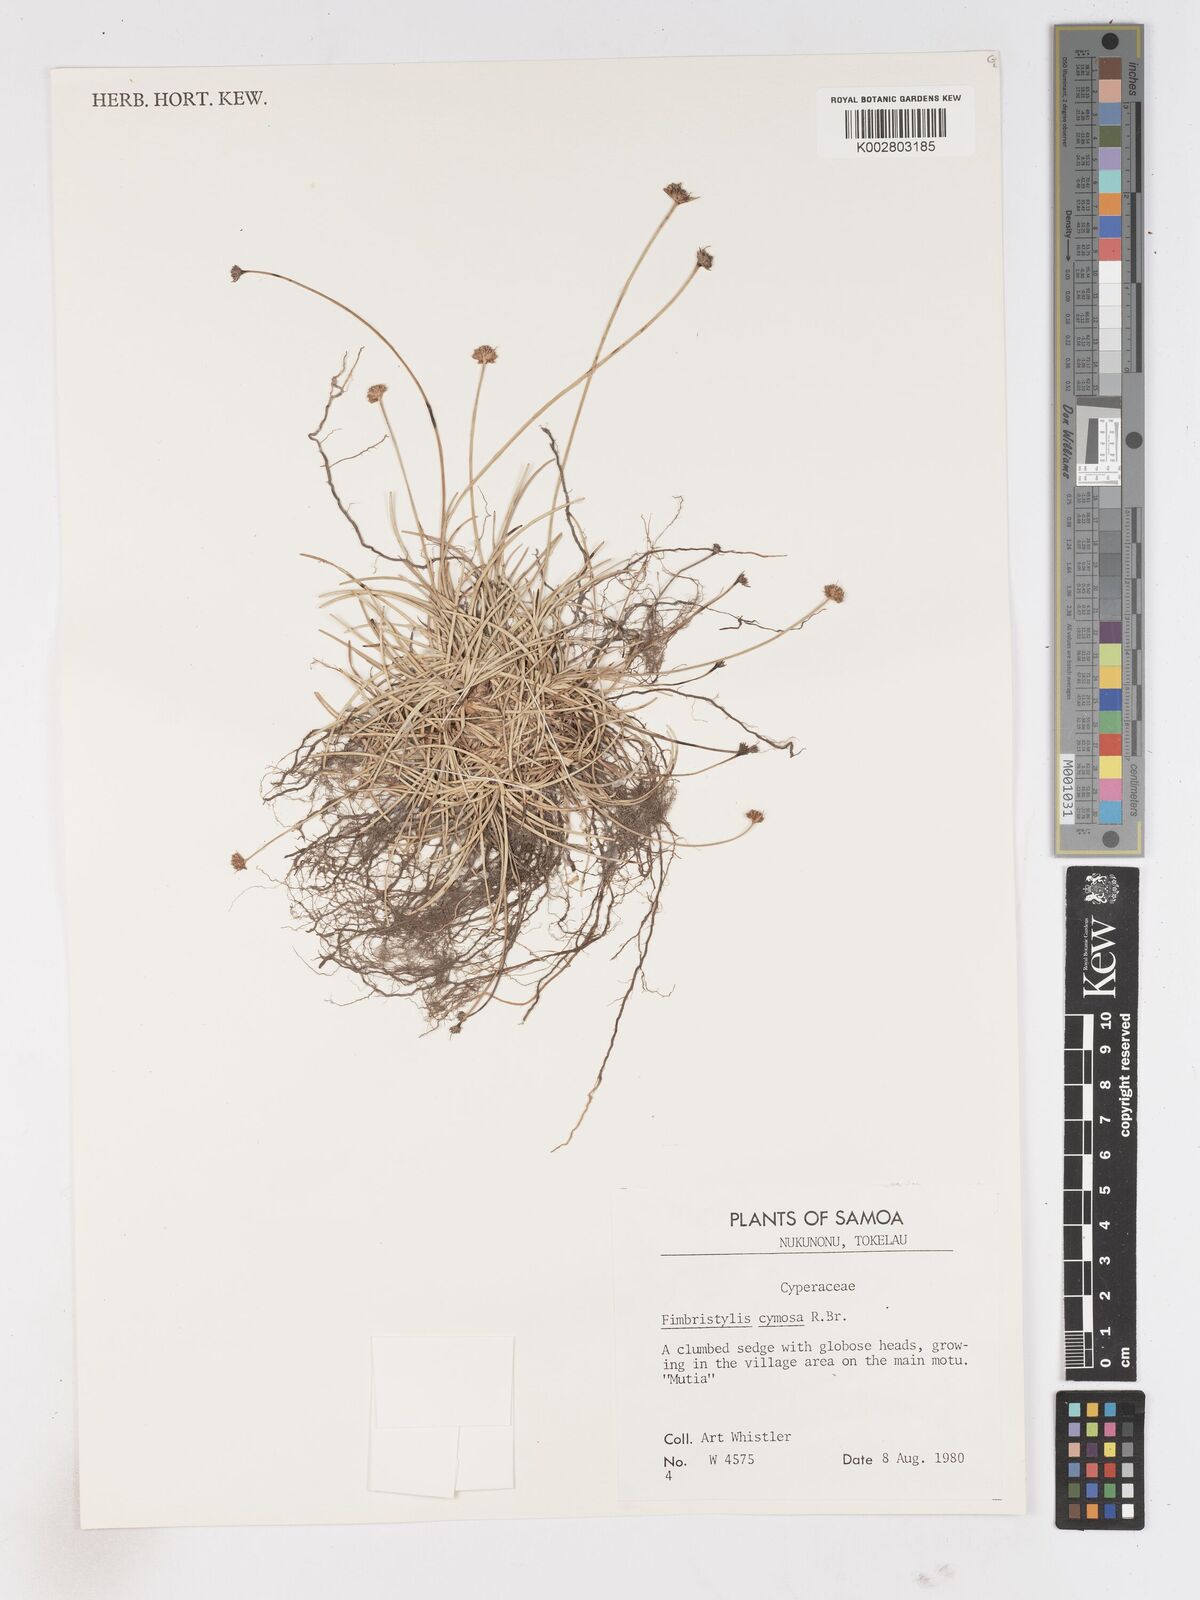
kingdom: Plantae
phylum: Tracheophyta
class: Liliopsida
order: Poales
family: Cyperaceae
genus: Fimbristylis
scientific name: Fimbristylis cymosa
